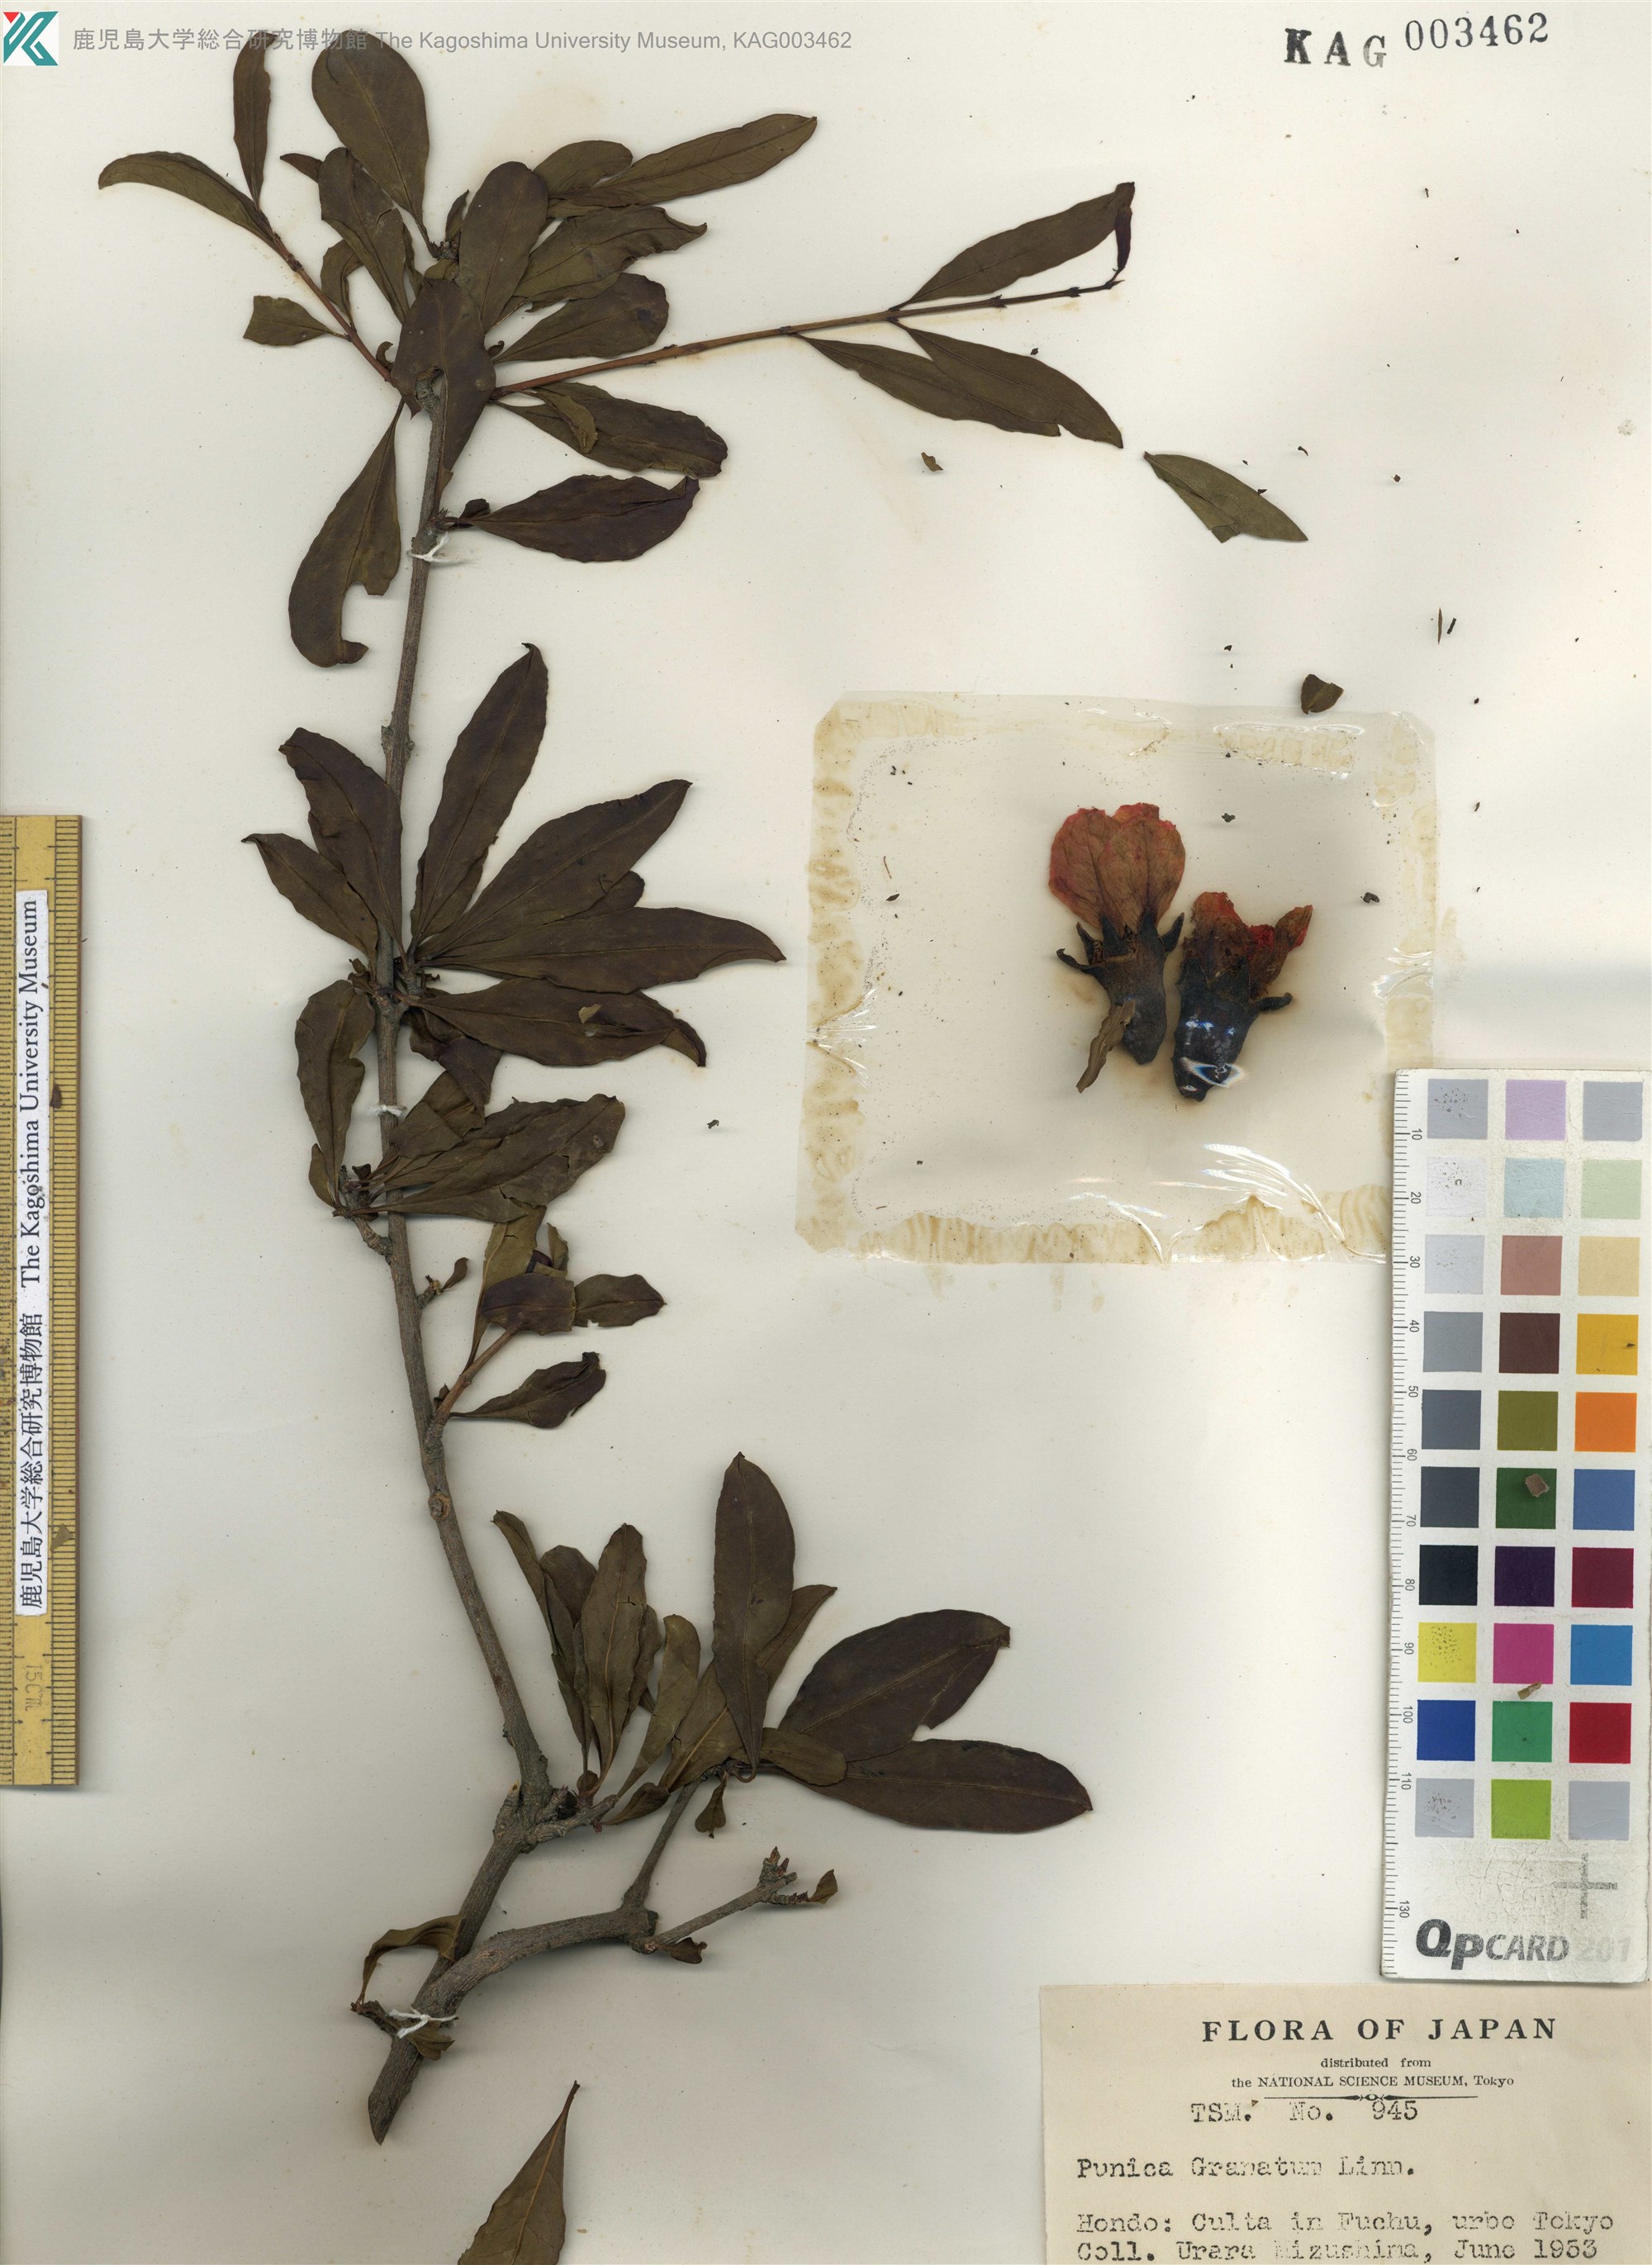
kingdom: Plantae
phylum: Tracheophyta
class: Magnoliopsida
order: Myrtales
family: Lythraceae
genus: Punica
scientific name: Punica granatum
